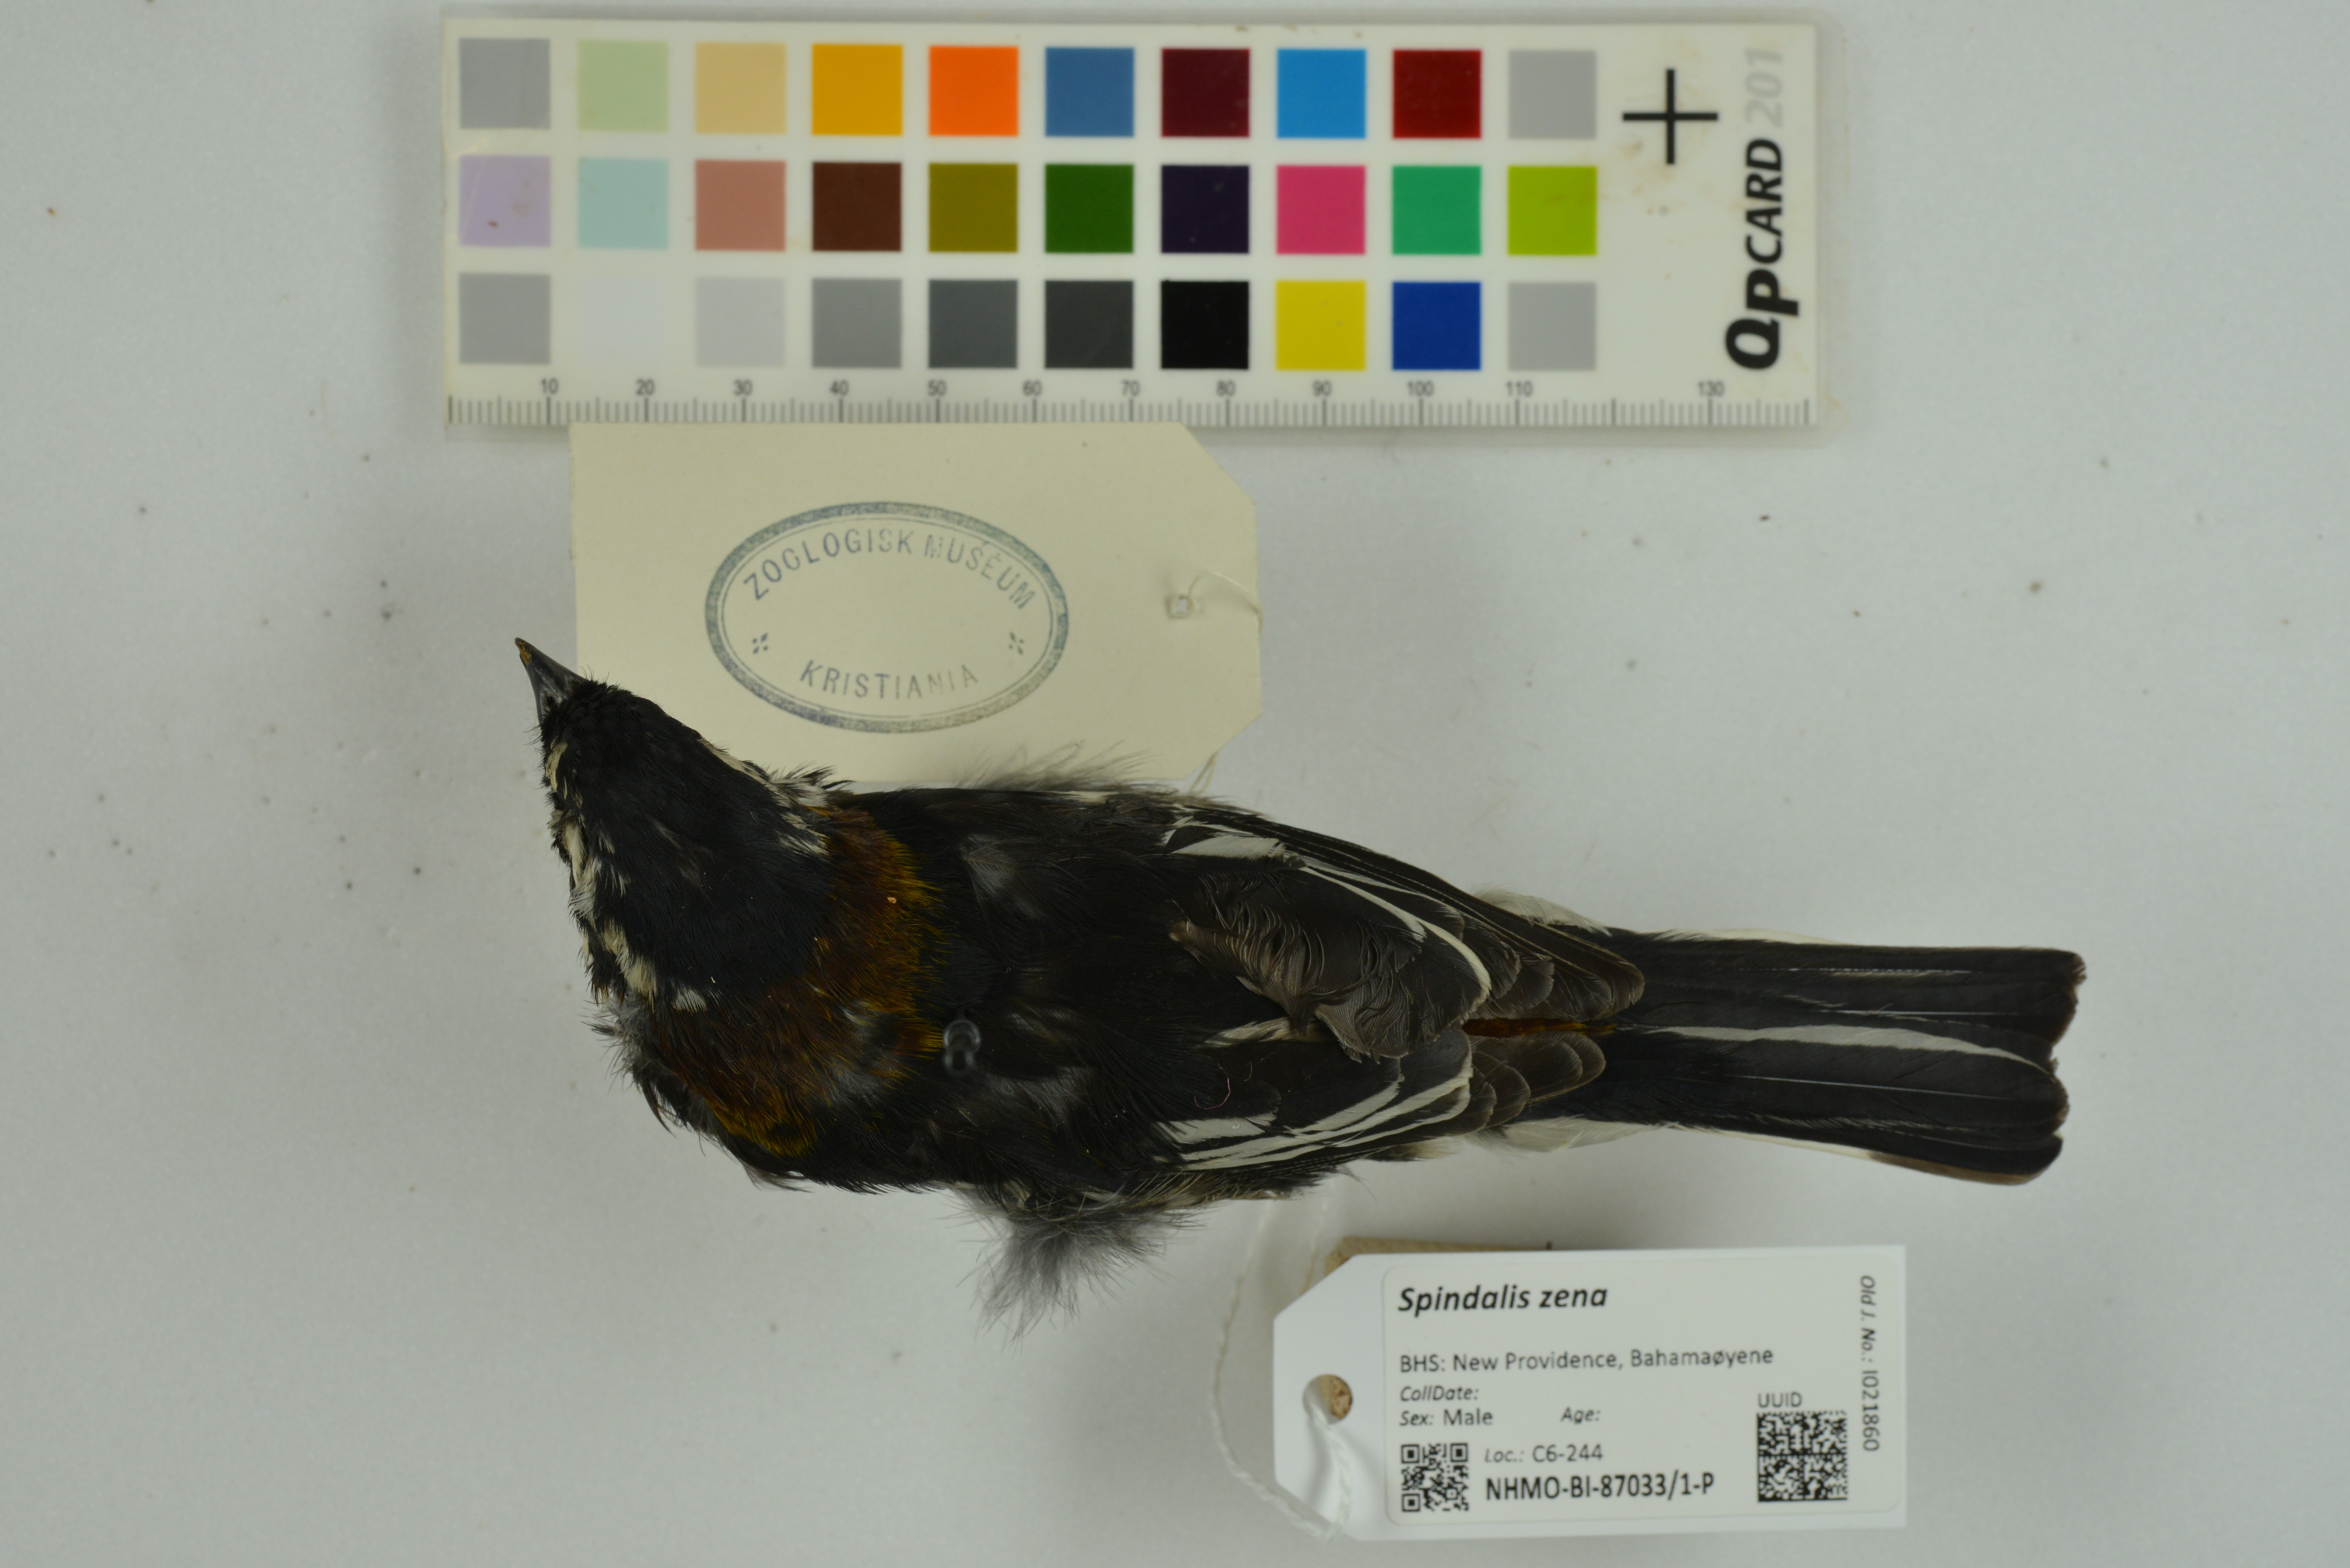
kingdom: Animalia
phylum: Chordata
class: Aves
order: Passeriformes
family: Spindalidae
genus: Spindalis
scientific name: Spindalis zena
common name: Western spindalis
